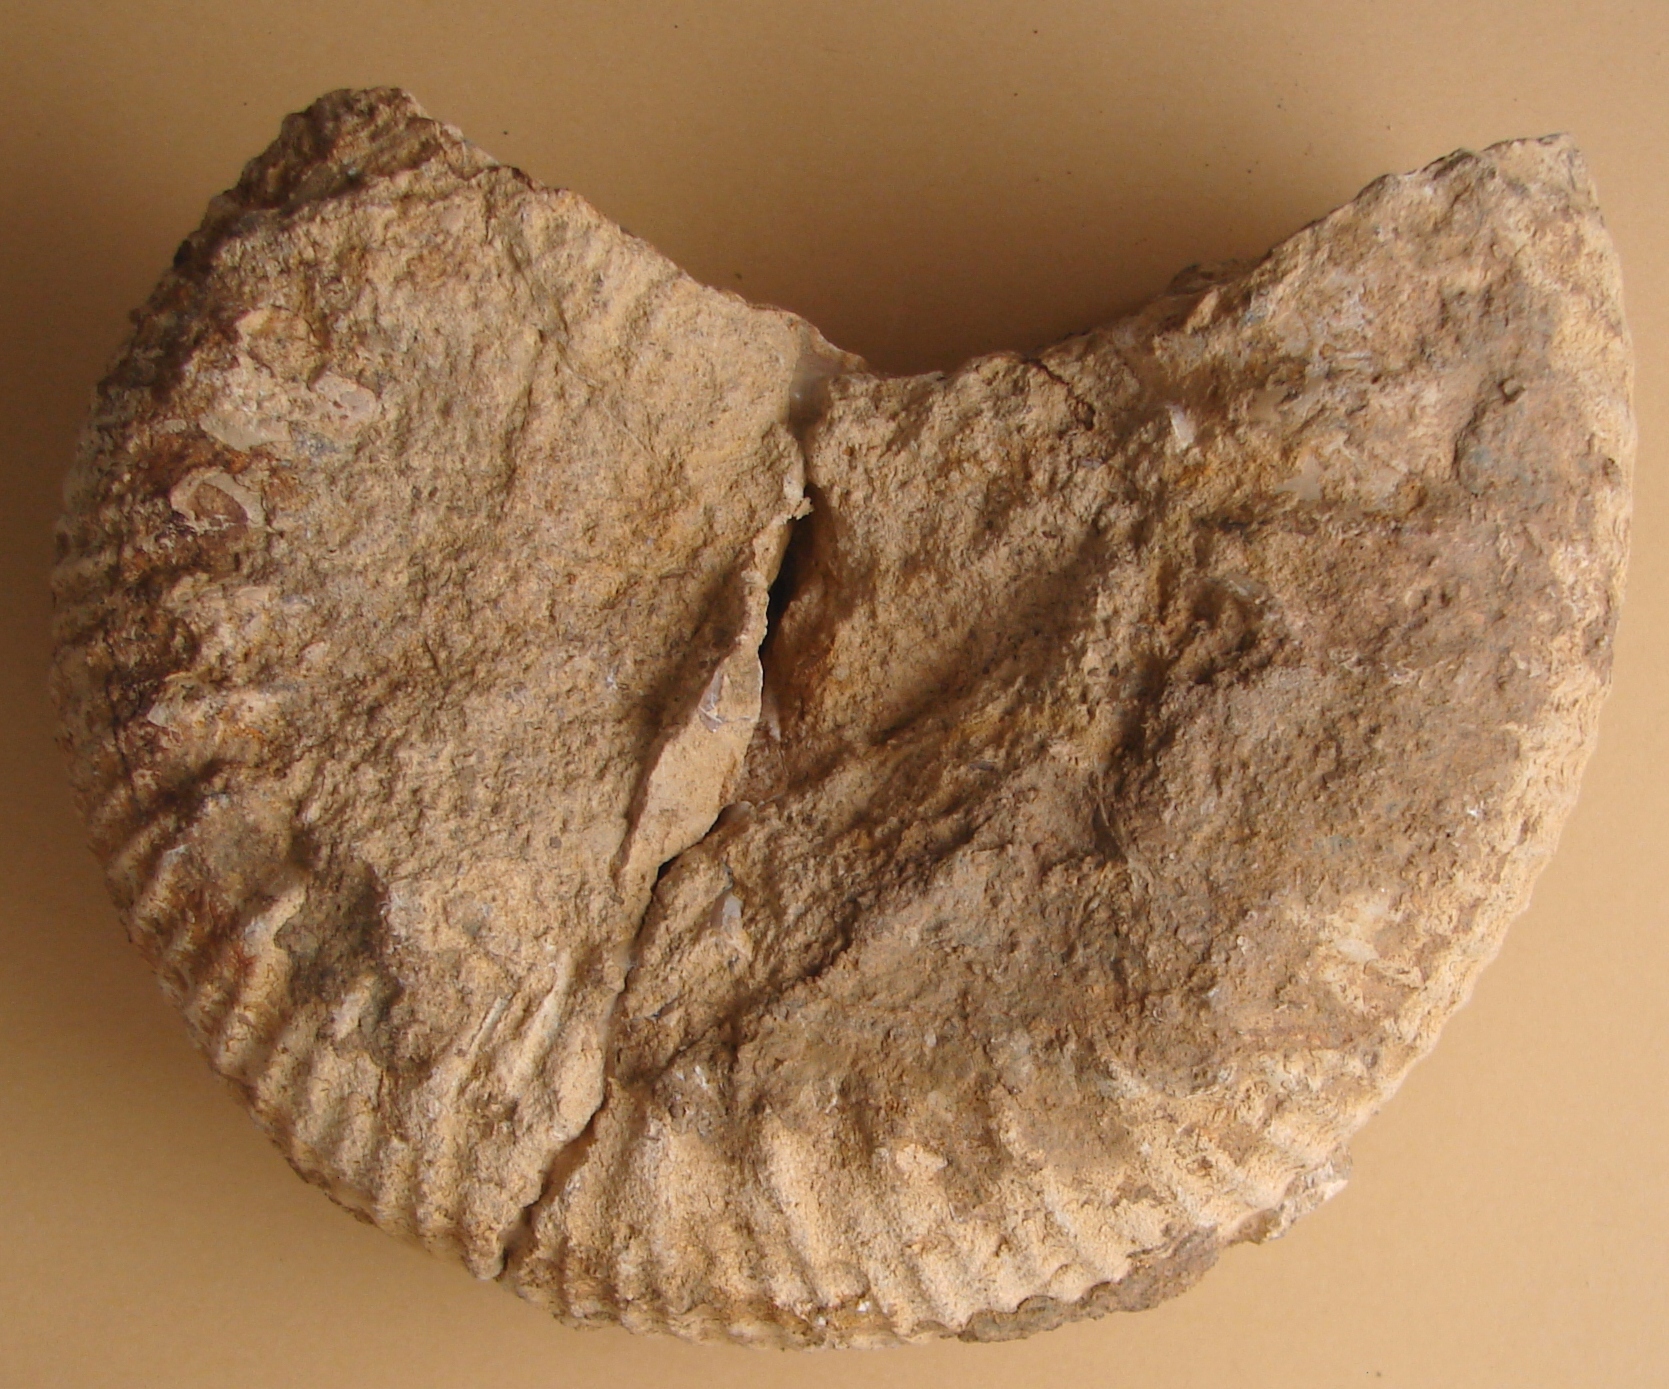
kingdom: Animalia
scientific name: Animalia
